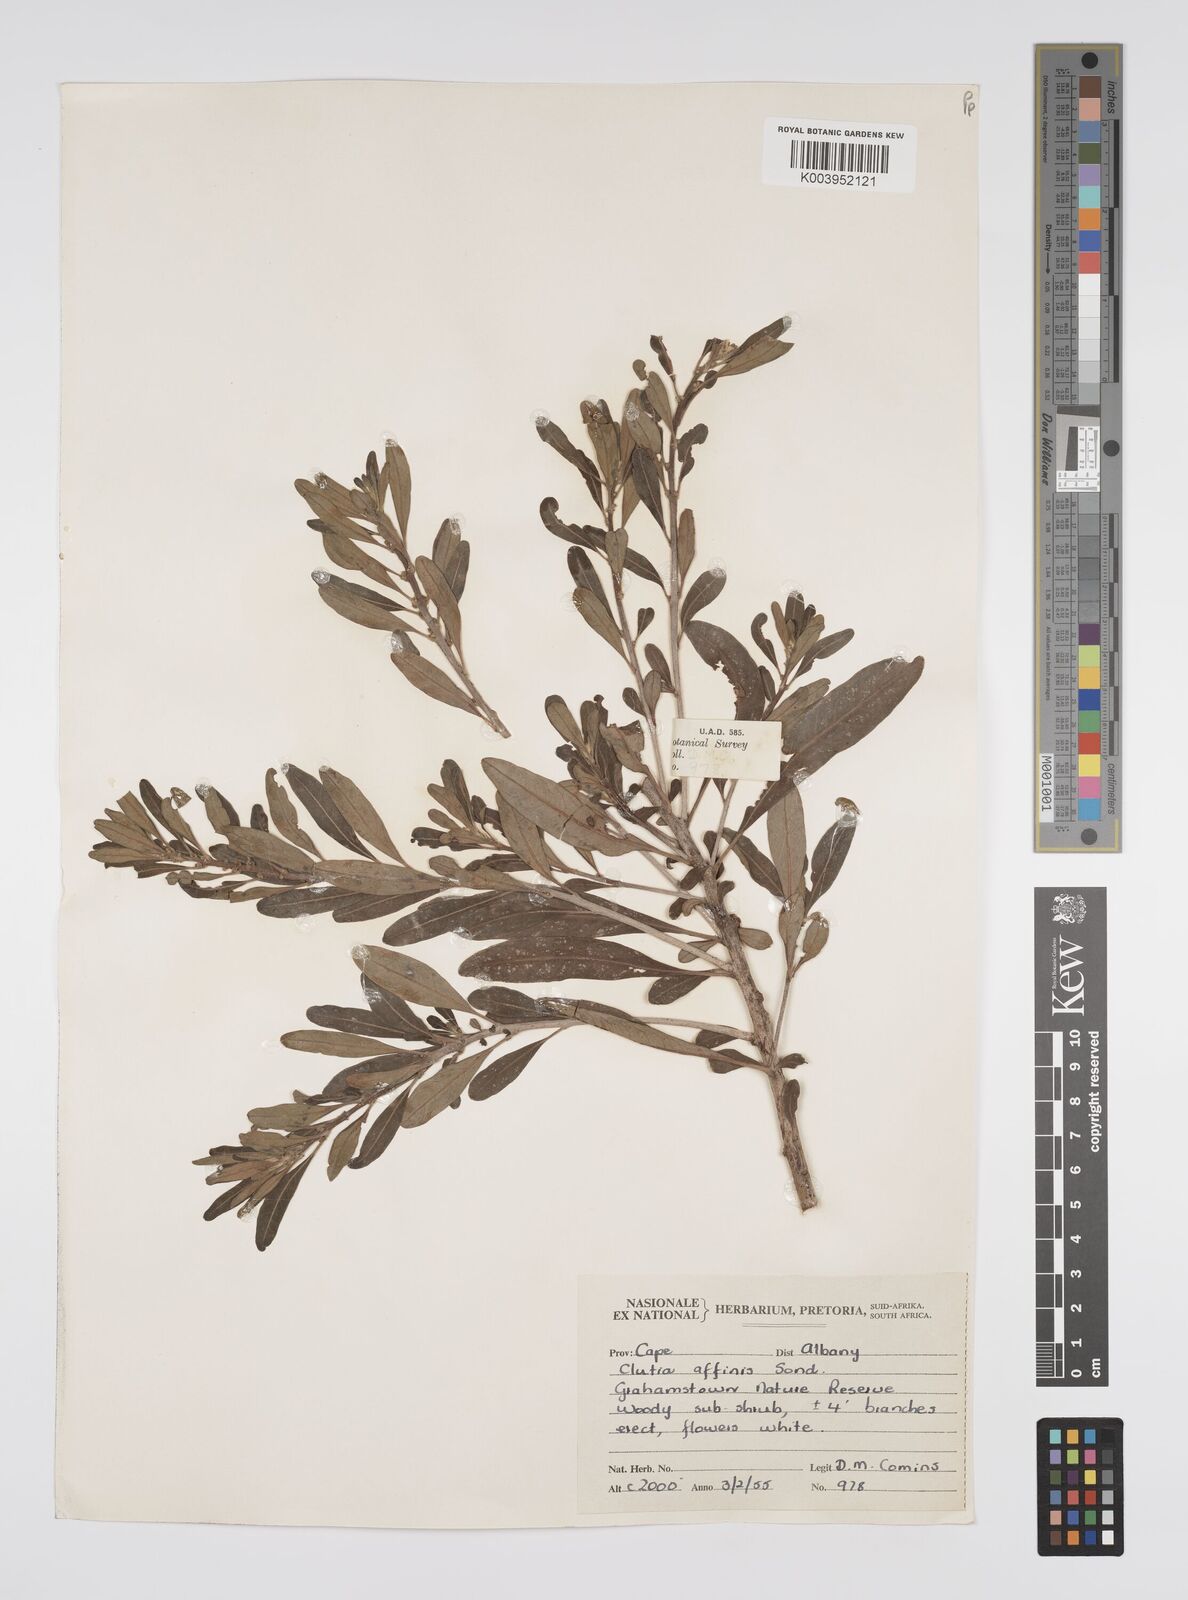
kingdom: Plantae
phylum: Tracheophyta
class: Magnoliopsida
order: Malpighiales
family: Peraceae
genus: Clutia
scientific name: Clutia affinis
